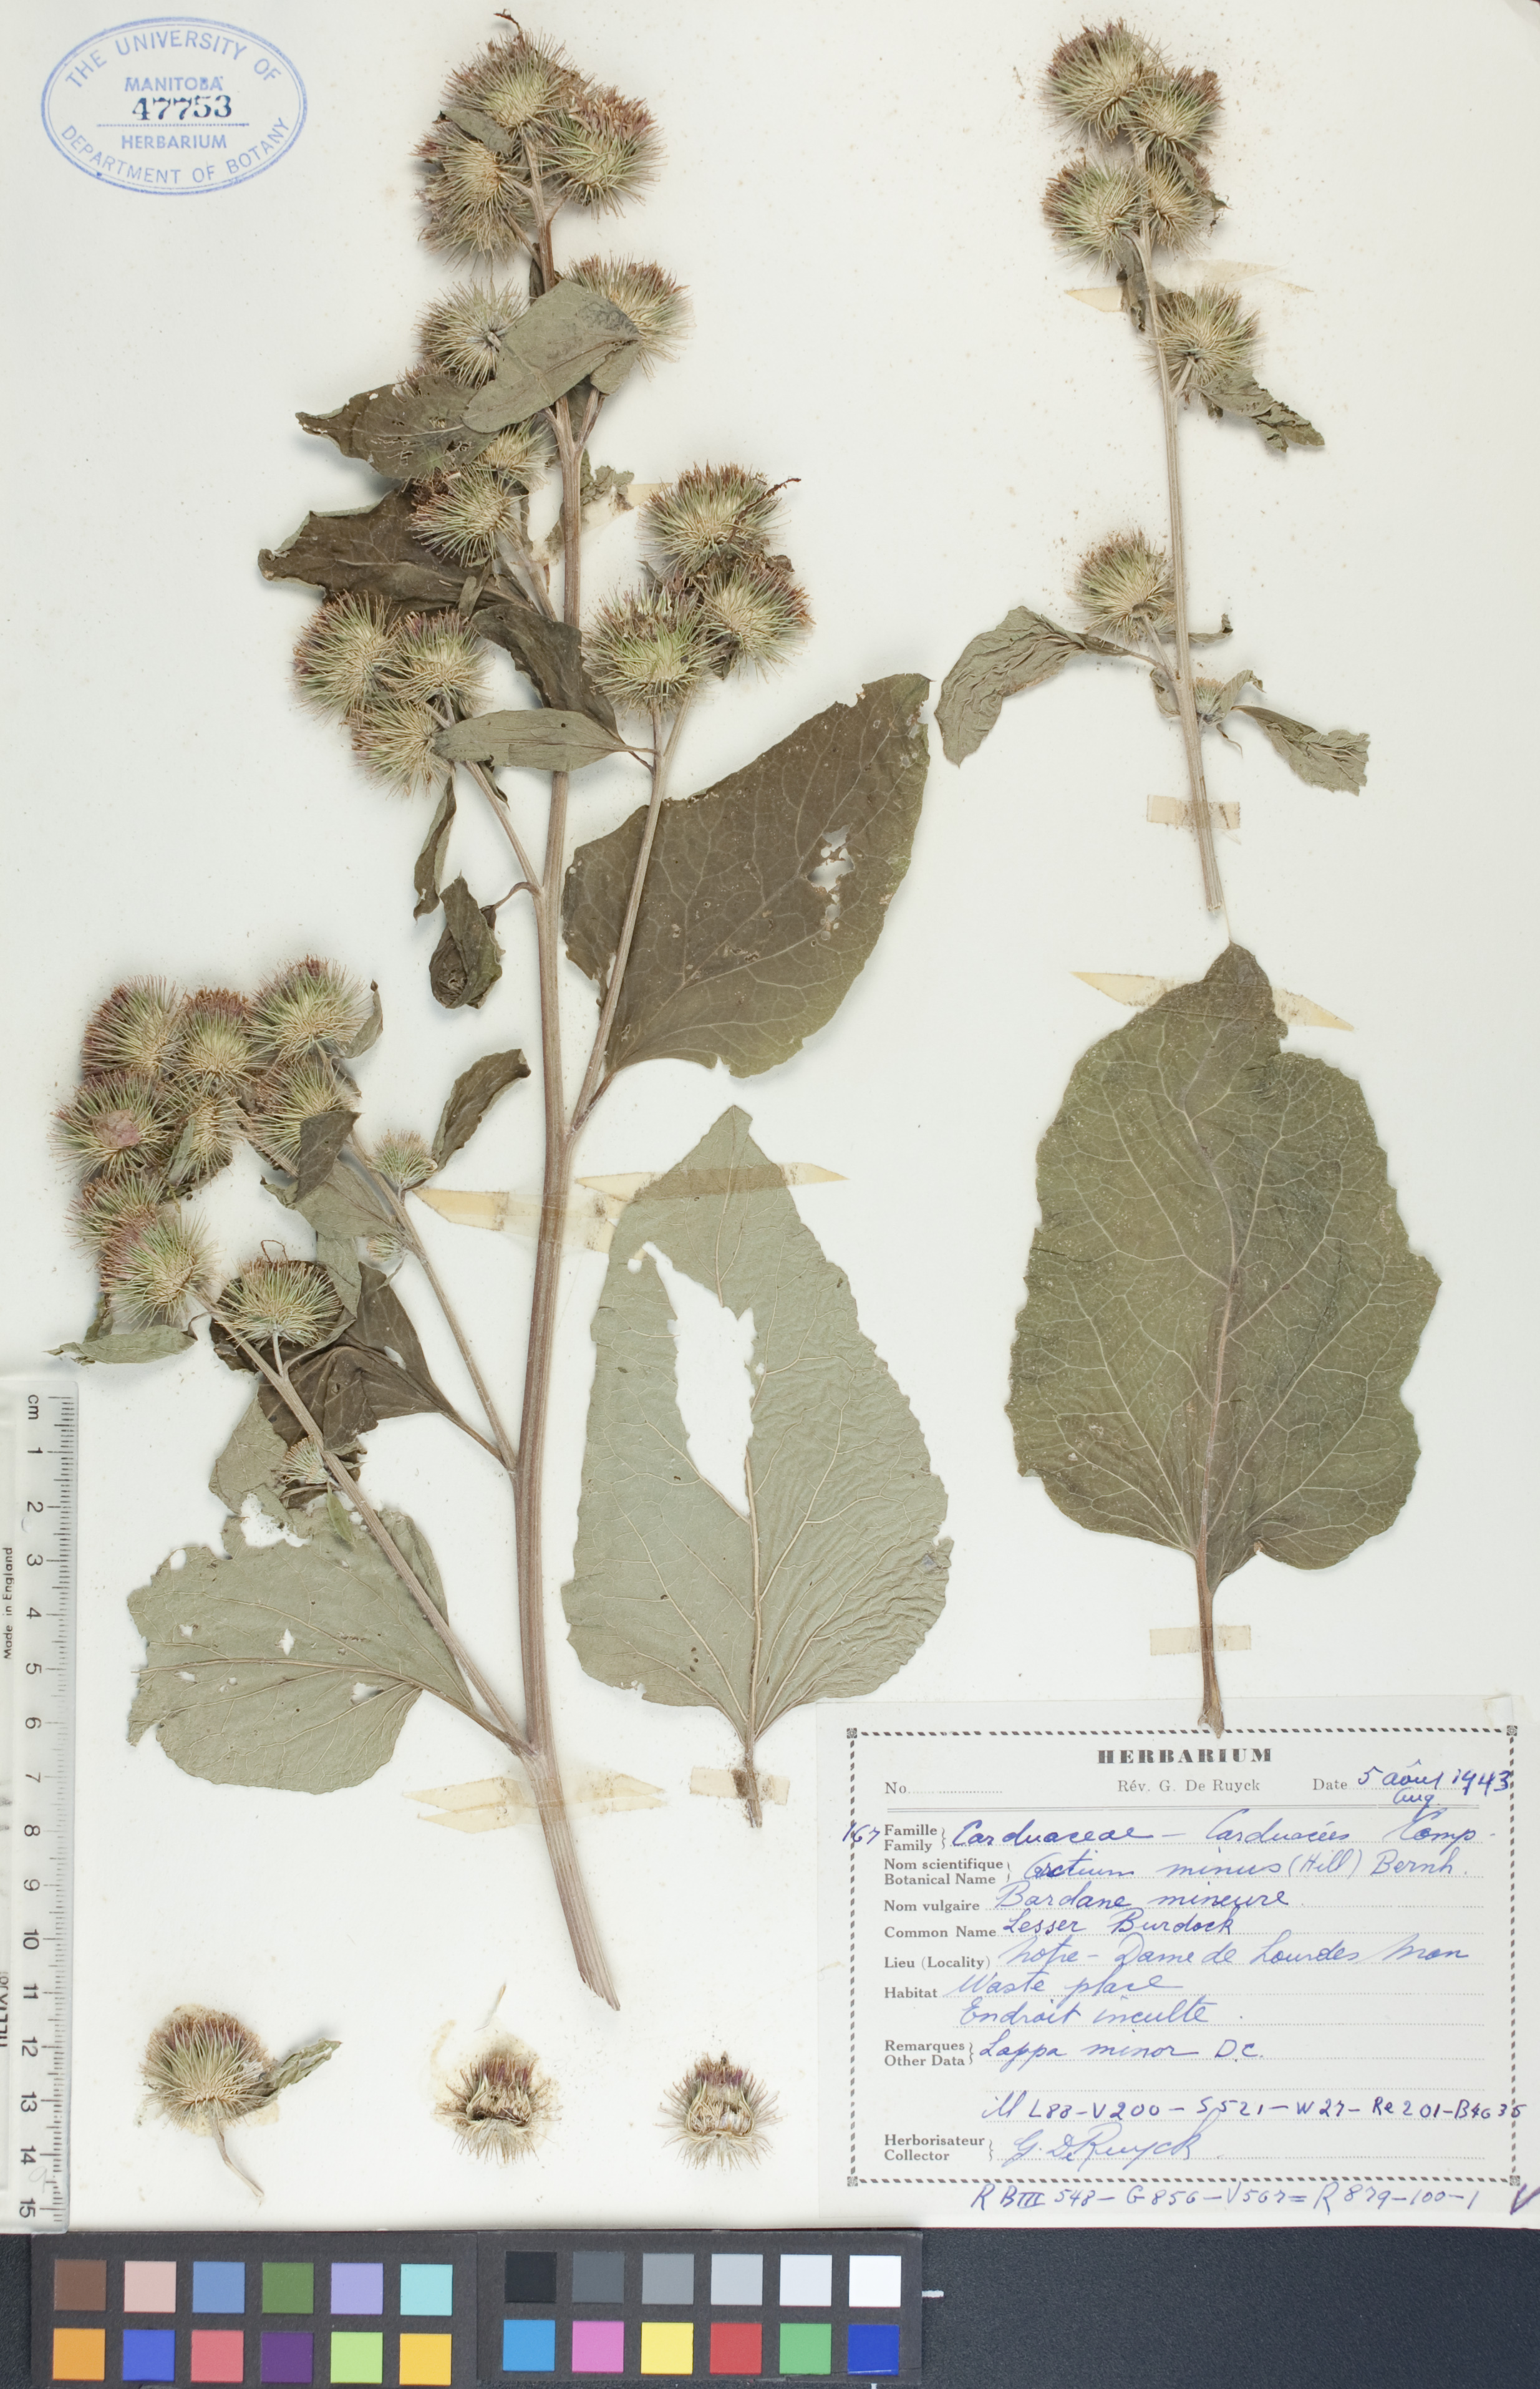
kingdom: Plantae
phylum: Tracheophyta
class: Magnoliopsida
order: Asterales
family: Asteraceae
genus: Arctium
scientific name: Arctium minus
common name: Lesser burdock
